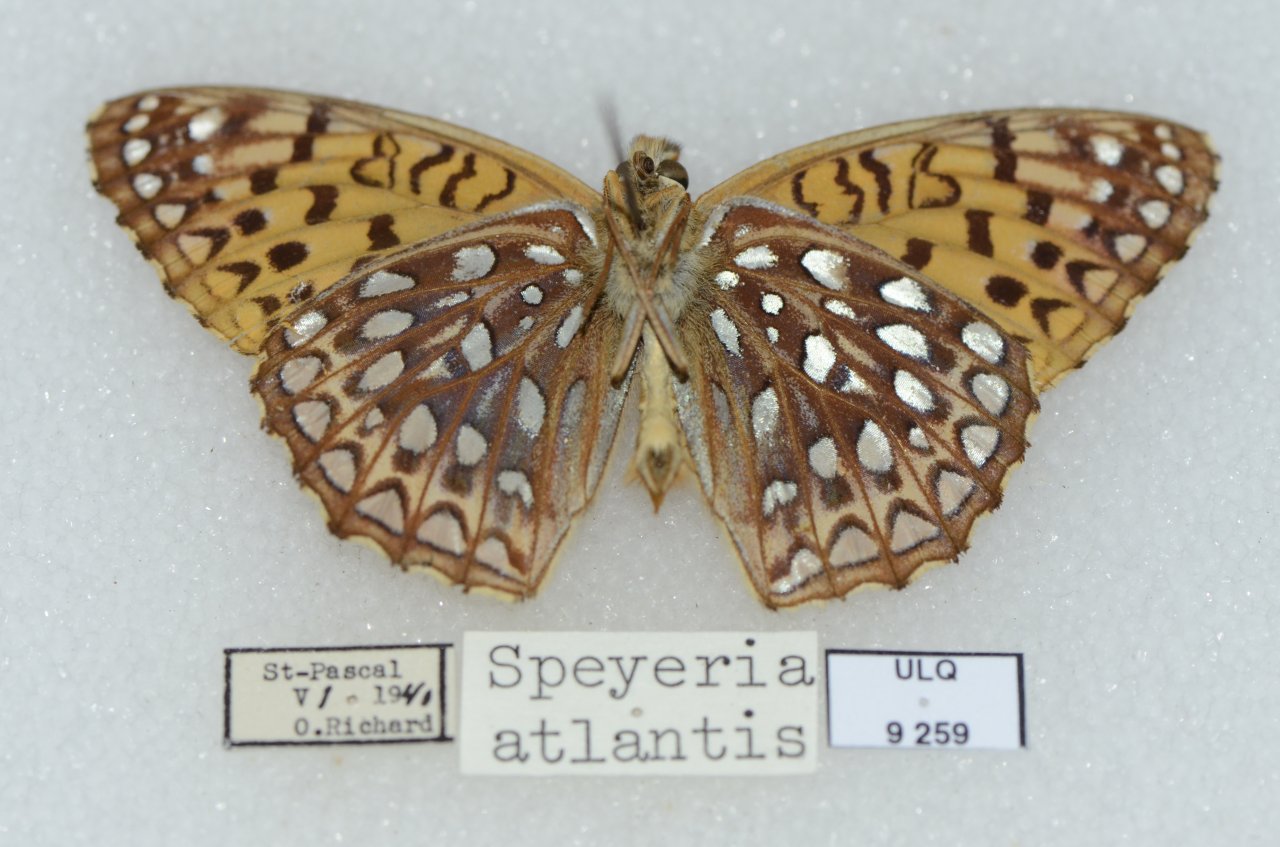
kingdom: Animalia
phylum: Arthropoda
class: Insecta
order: Lepidoptera
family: Nymphalidae
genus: Speyeria
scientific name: Speyeria atlantis
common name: Atlantis Fritillary
